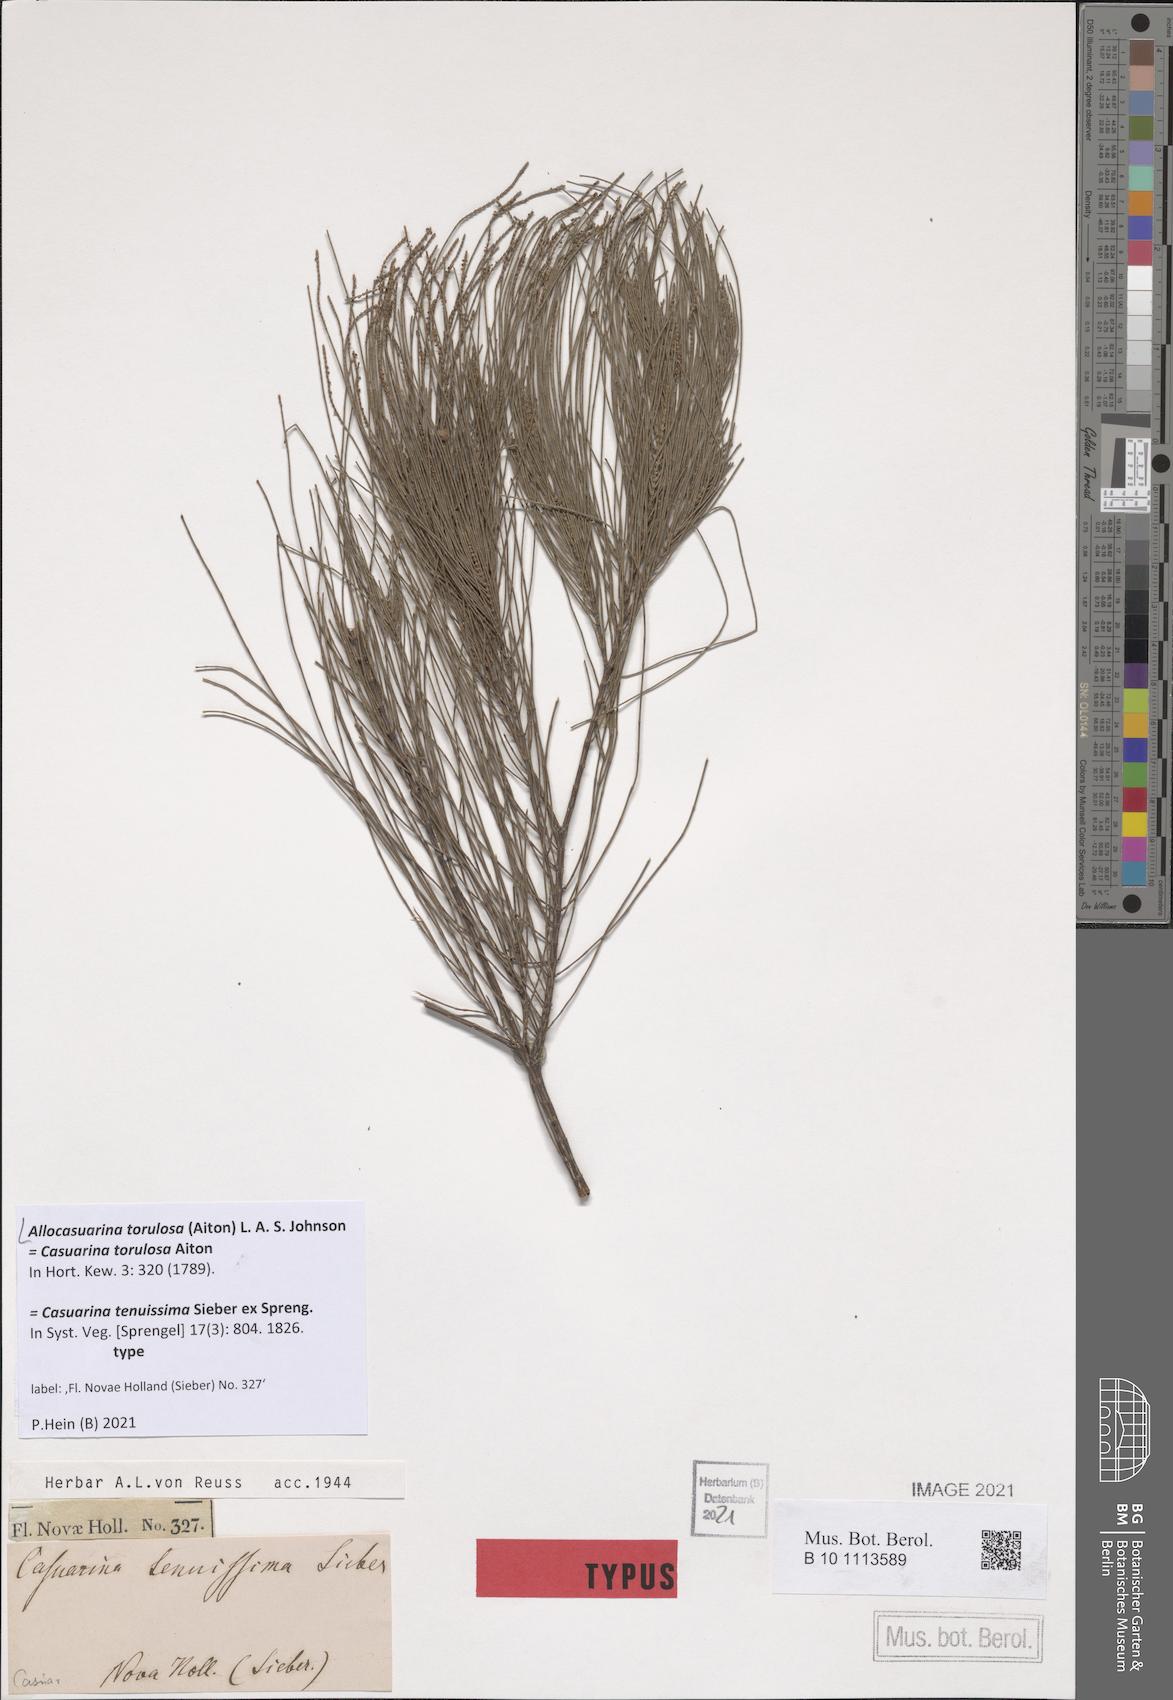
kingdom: Plantae
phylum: Tracheophyta
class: Magnoliopsida
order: Fagales
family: Casuarinaceae
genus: Allocasuarina
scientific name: Allocasuarina torulosa
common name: Forest-oak
